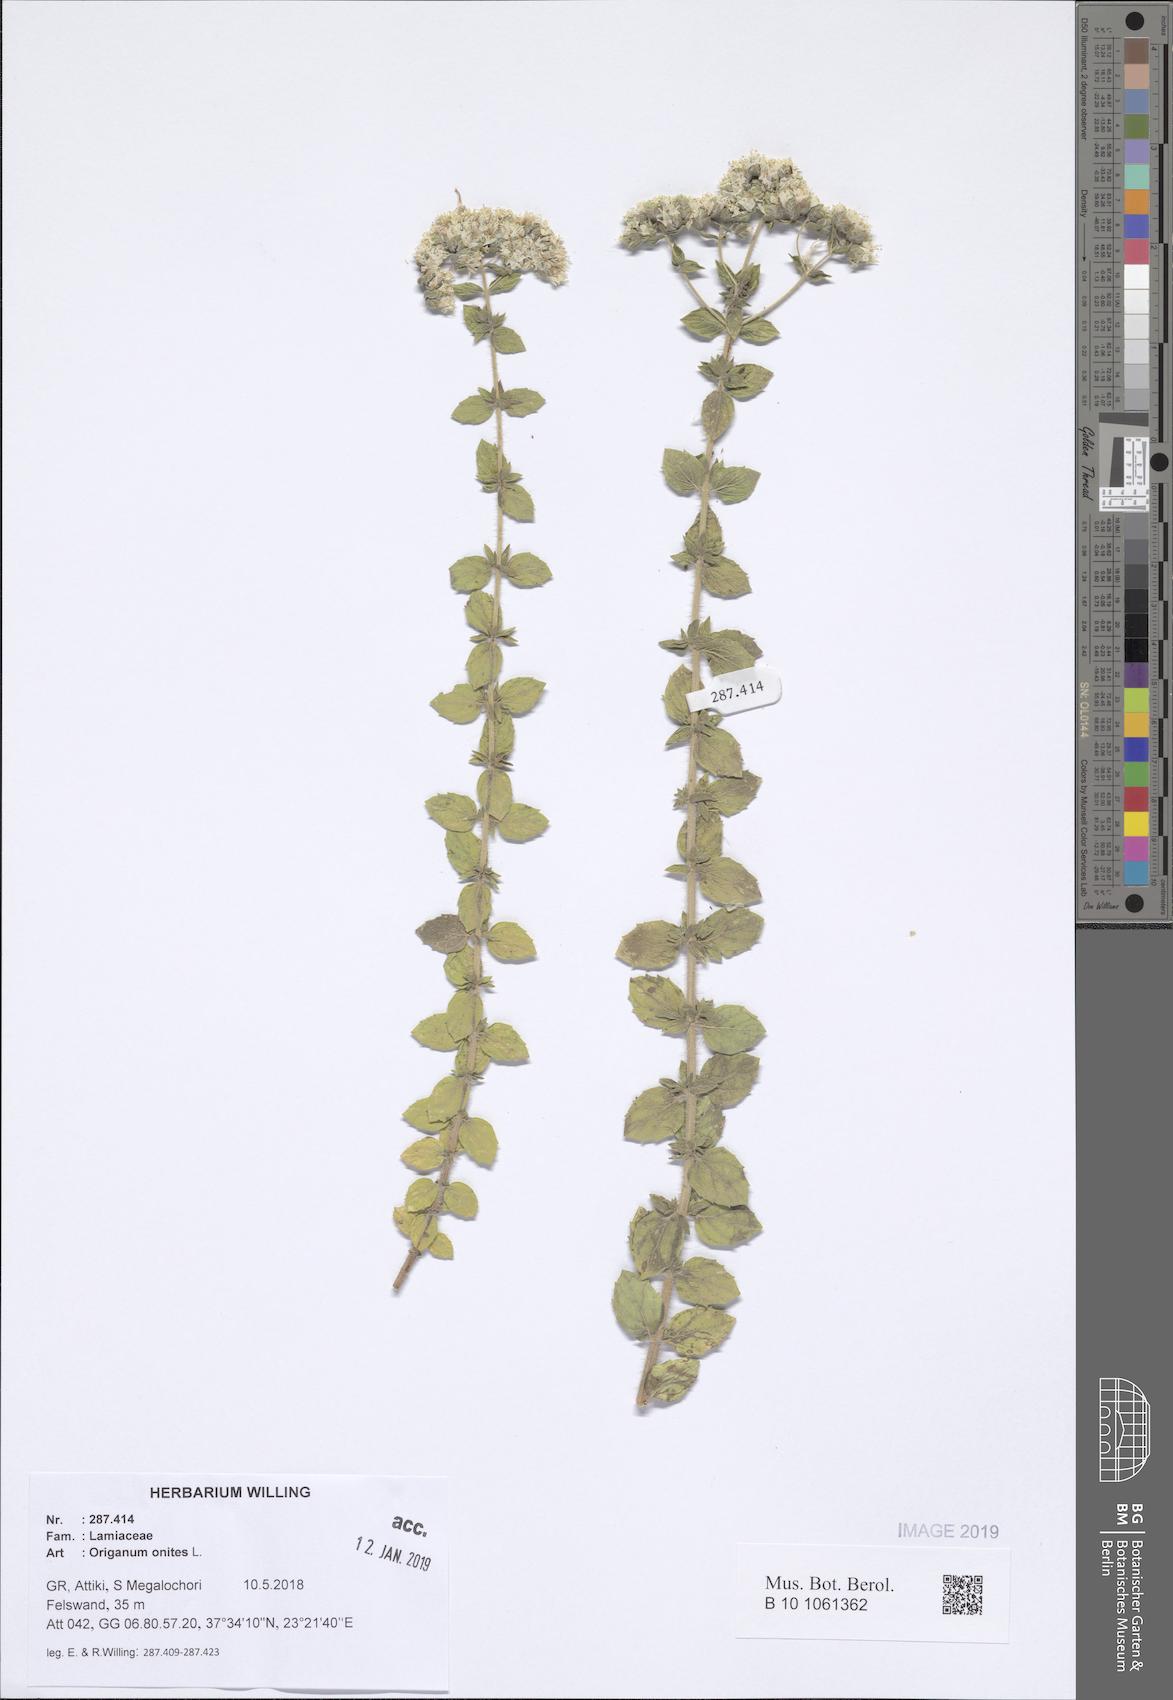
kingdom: Plantae
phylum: Tracheophyta
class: Magnoliopsida
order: Lamiales
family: Lamiaceae
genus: Origanum
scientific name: Origanum onites
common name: Turkish oregano
